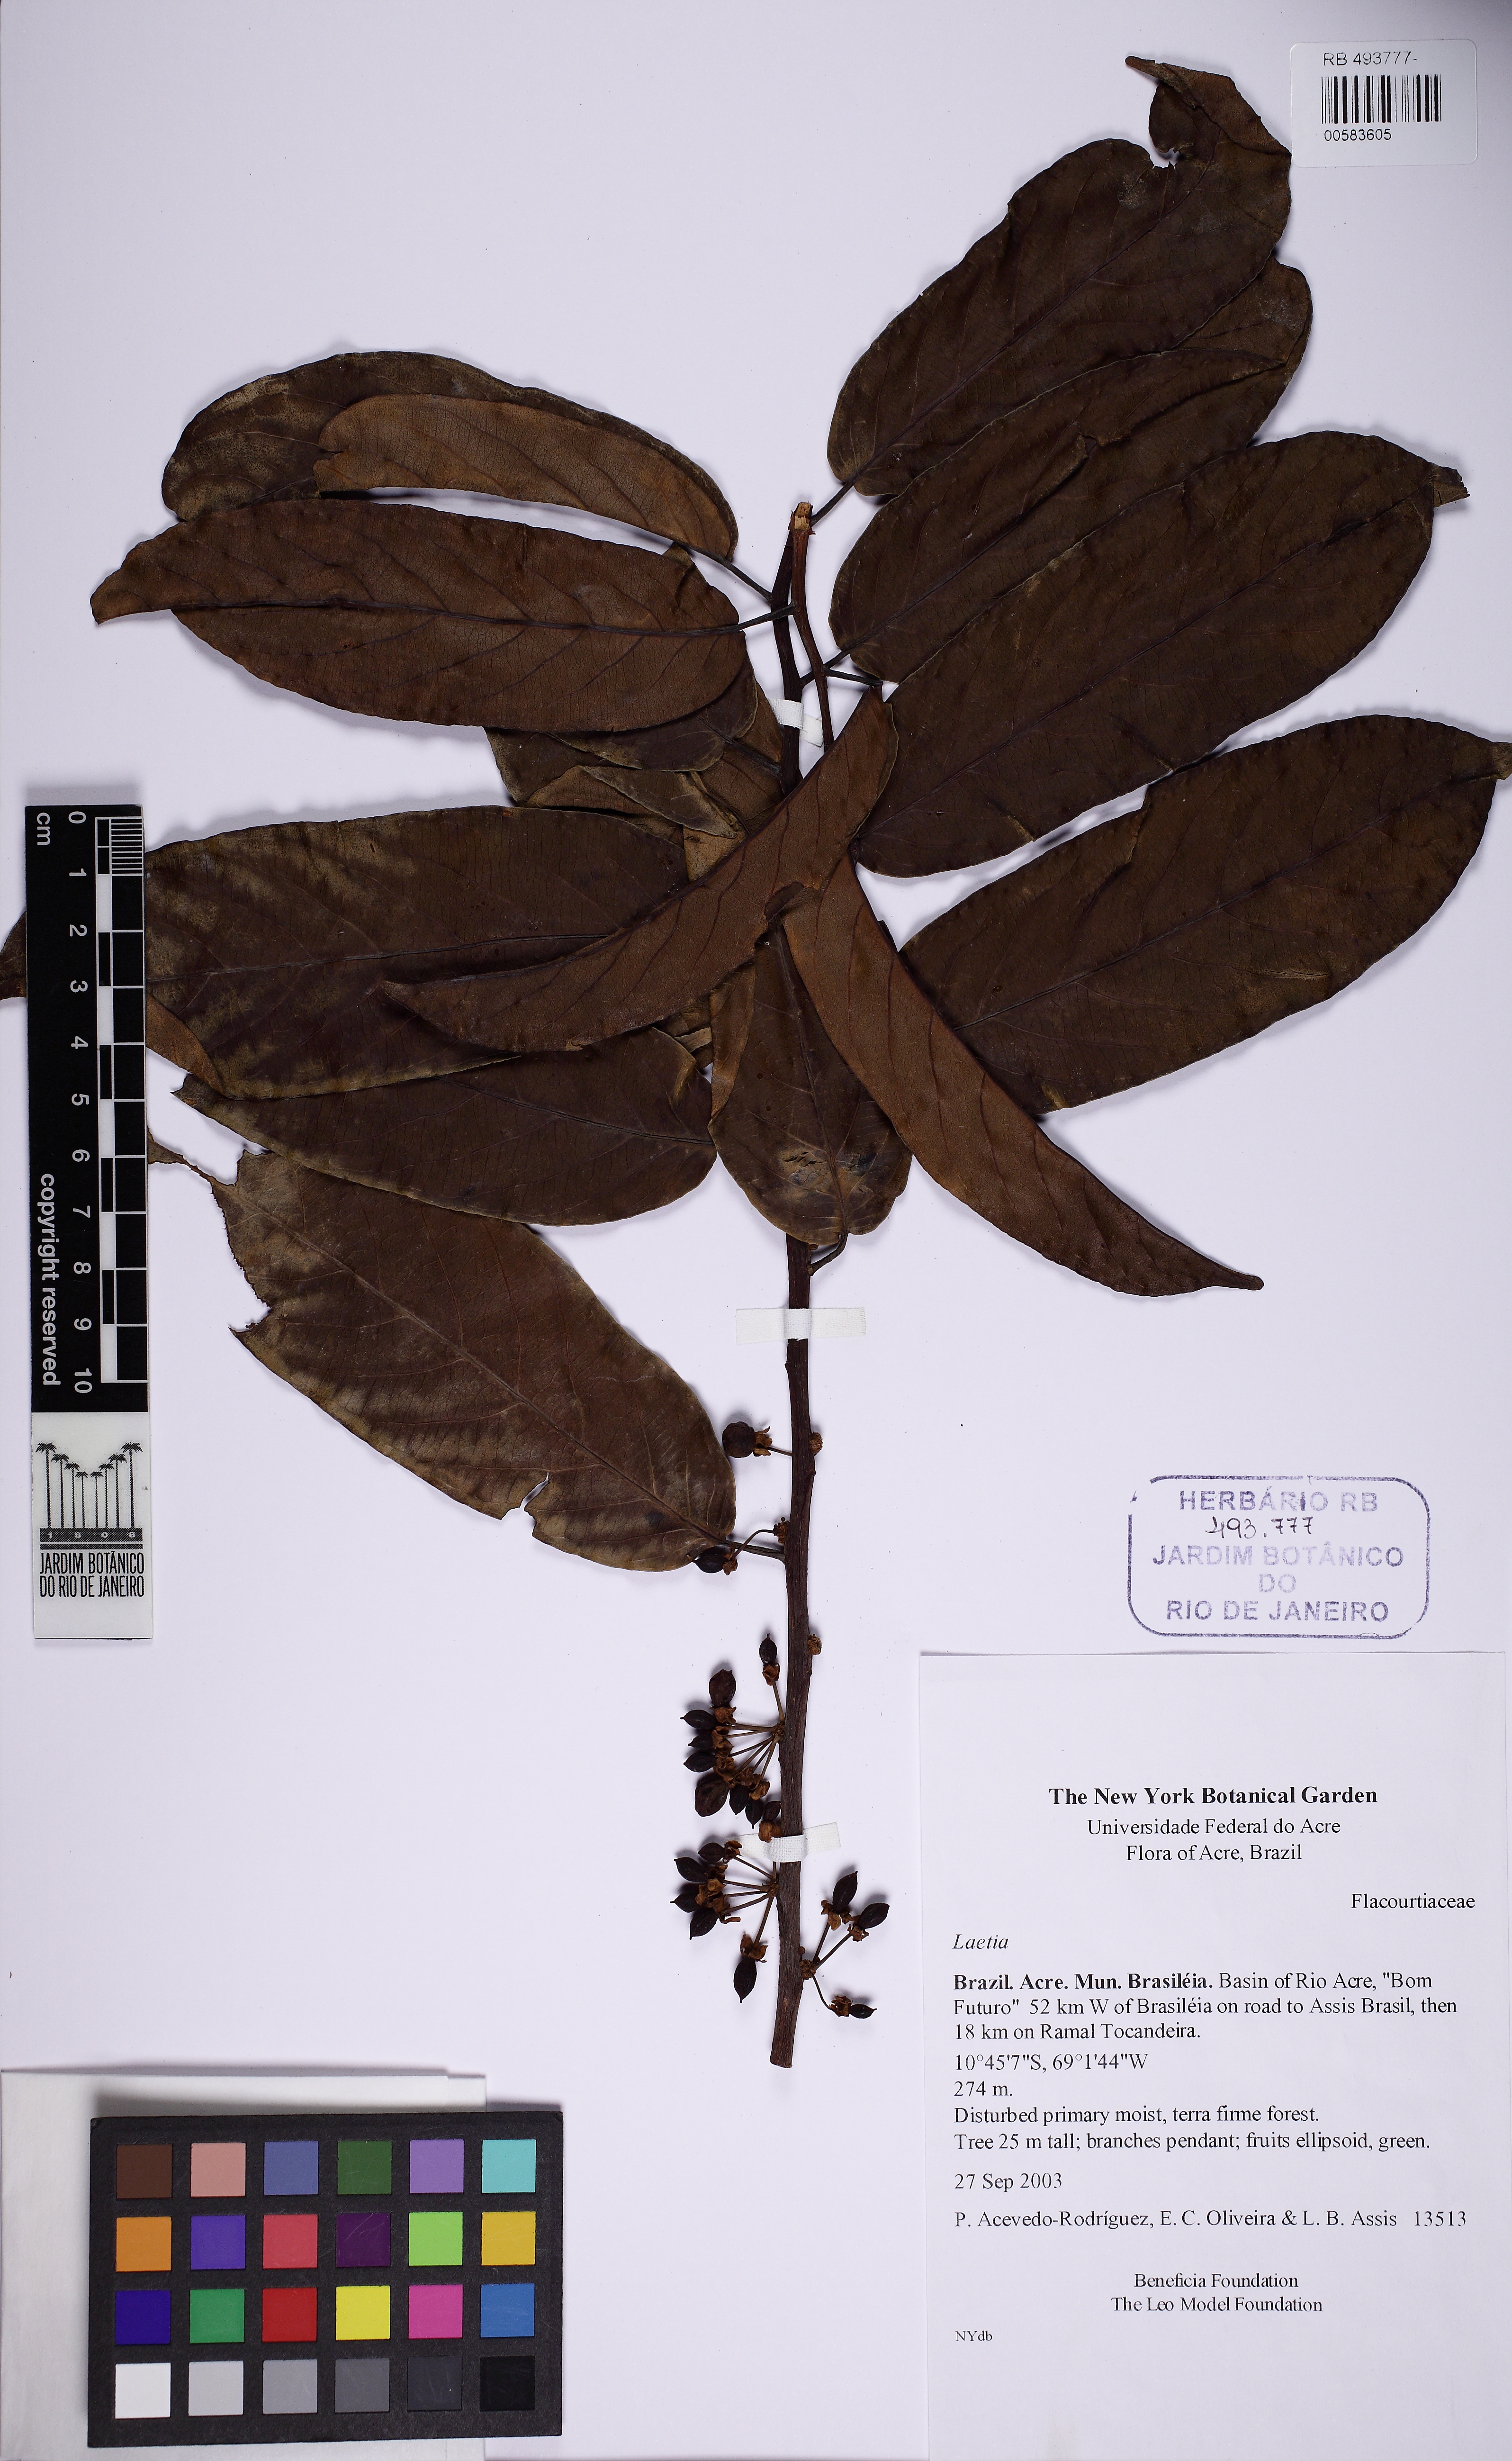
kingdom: Plantae
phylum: Tracheophyta
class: Magnoliopsida
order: Malpighiales
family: Flacourtiaceae
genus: Laetia
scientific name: Laetia
